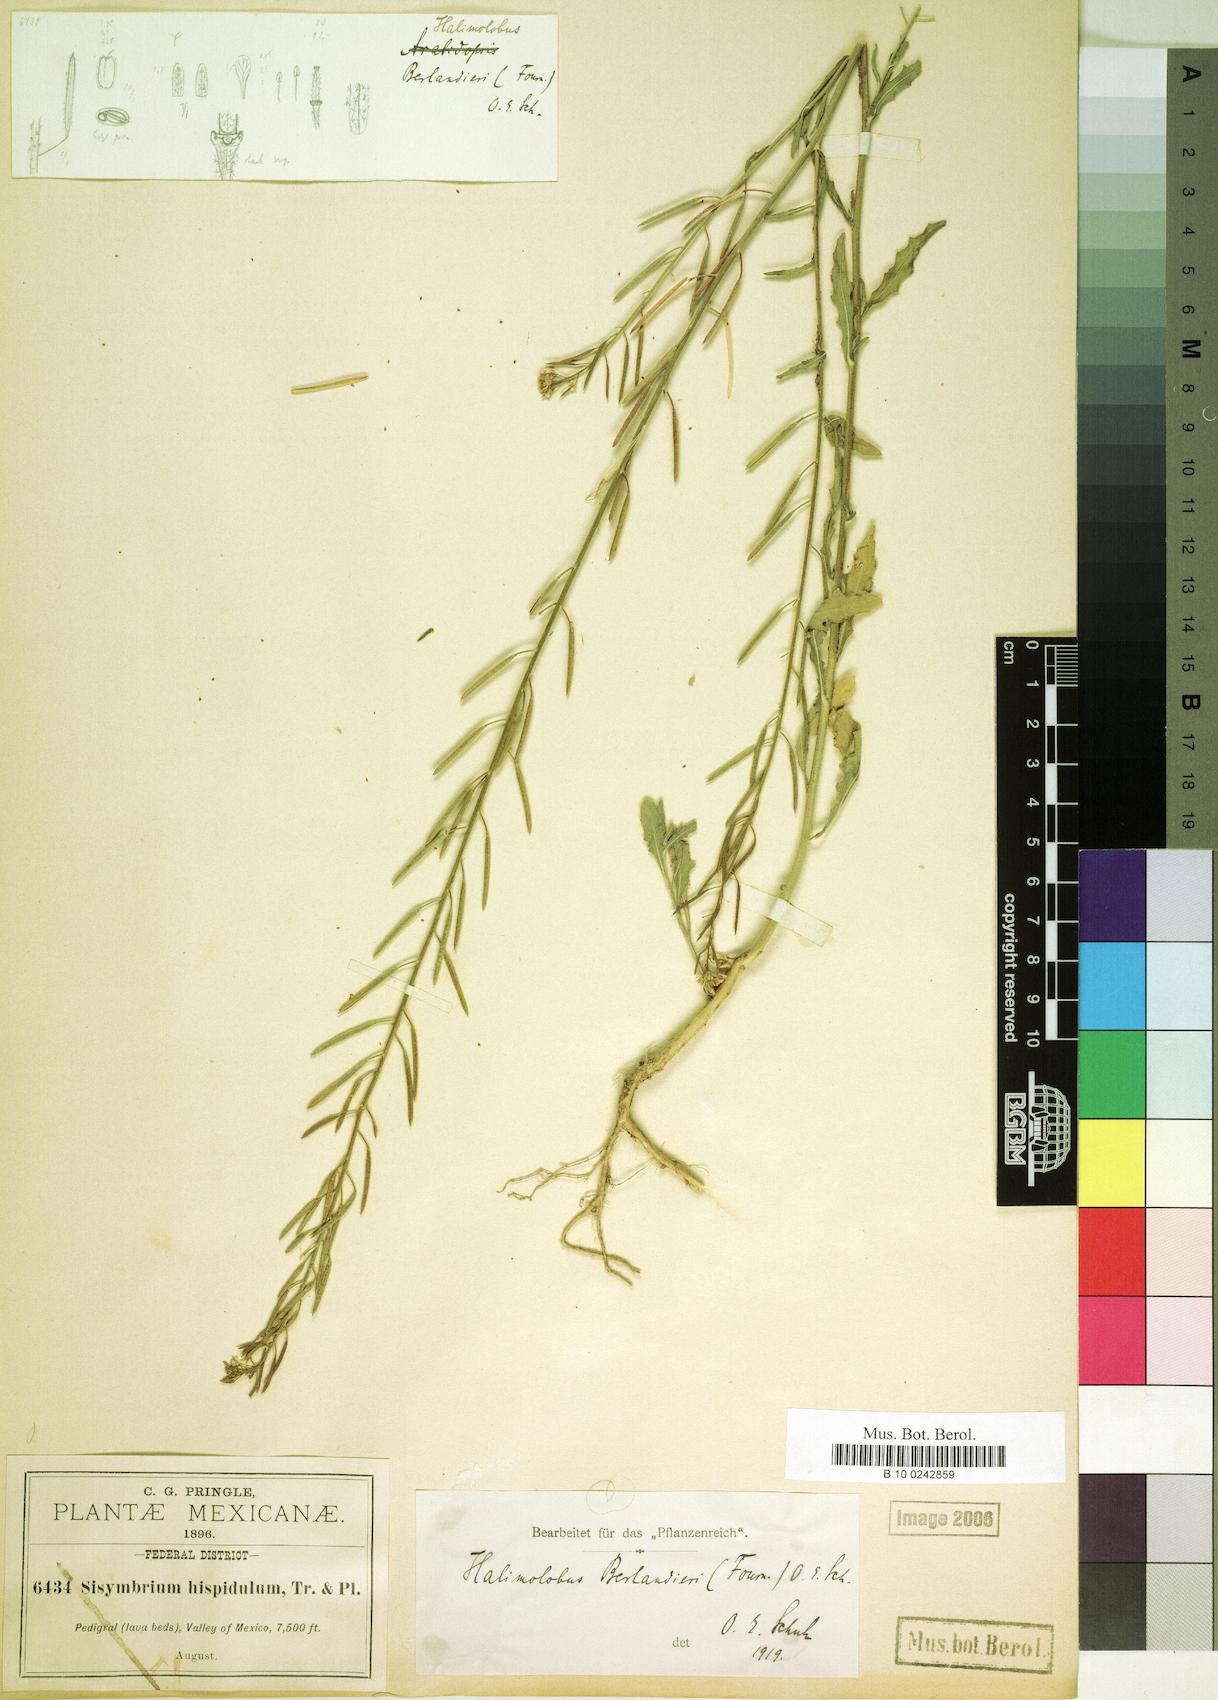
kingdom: Plantae
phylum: Tracheophyta
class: Magnoliopsida
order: Brassicales
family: Brassicaceae
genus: Exhalimolobos
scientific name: Exhalimolobos berlandieri
